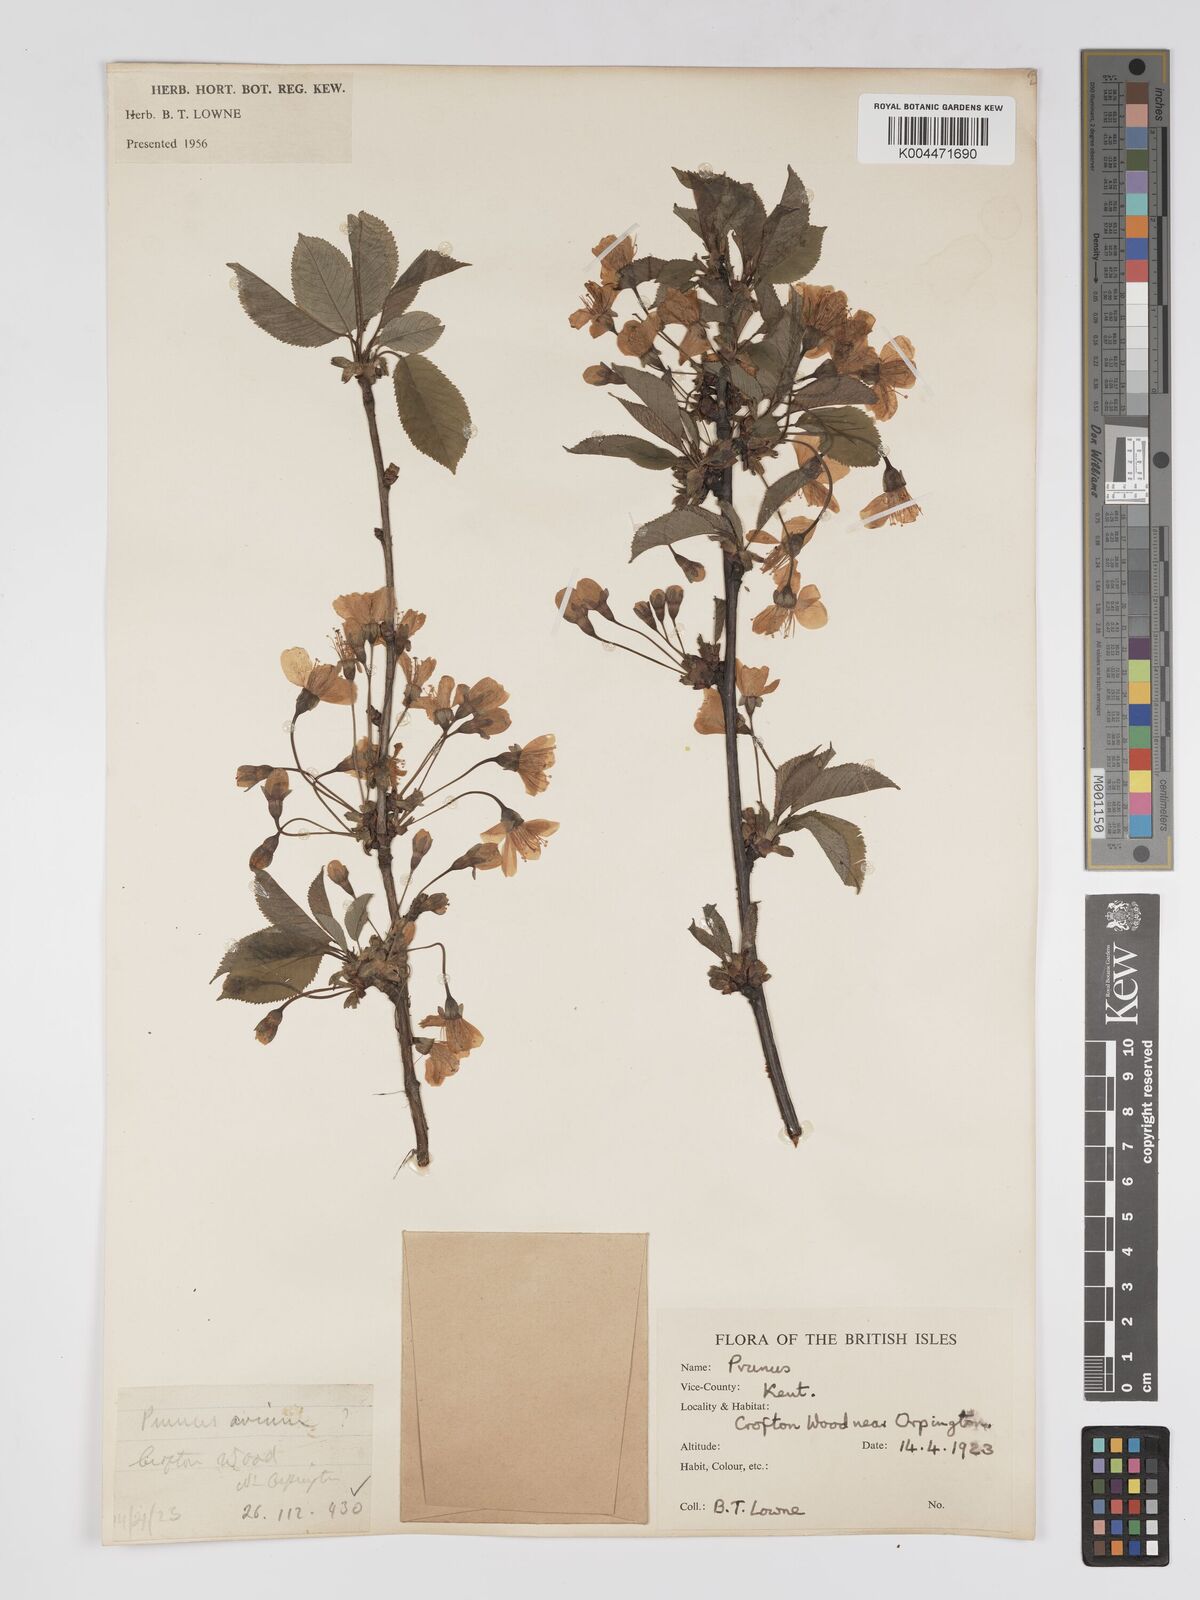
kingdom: Plantae
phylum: Tracheophyta
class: Magnoliopsida
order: Rosales
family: Rosaceae
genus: Prunus
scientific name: Prunus
